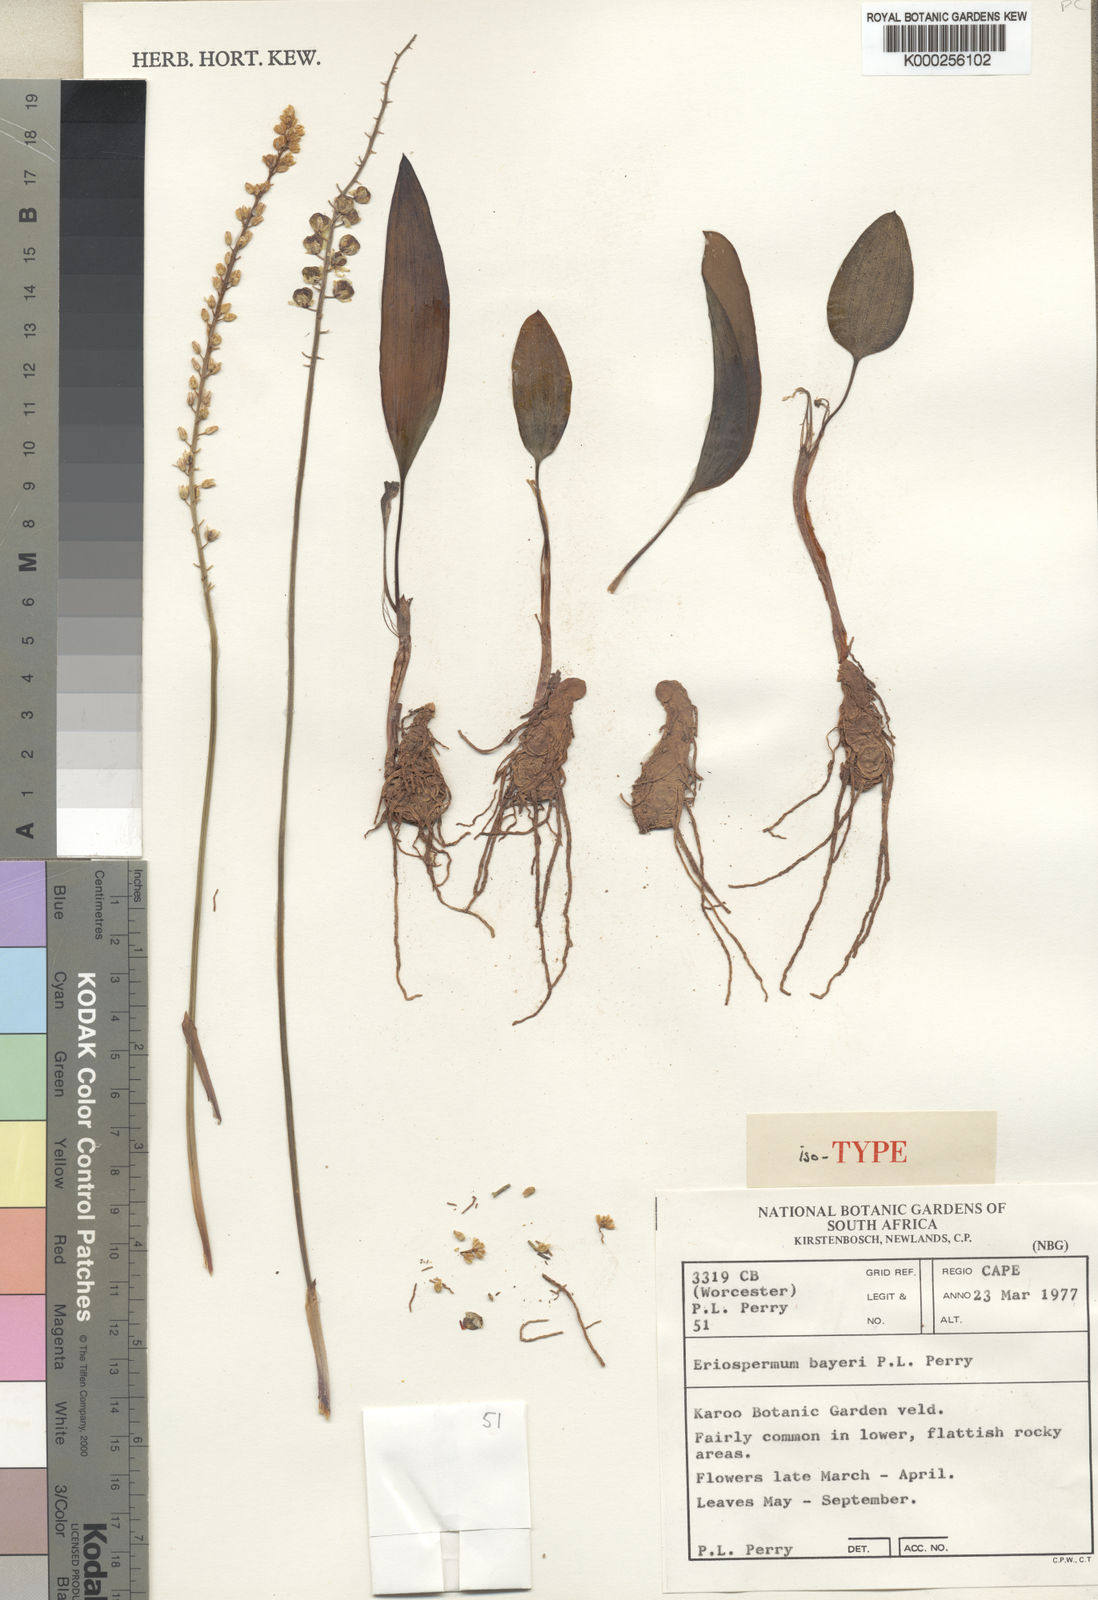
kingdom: Plantae
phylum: Tracheophyta
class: Liliopsida
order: Asparagales
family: Asparagaceae
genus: Eriospermum
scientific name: Eriospermum bayeri
